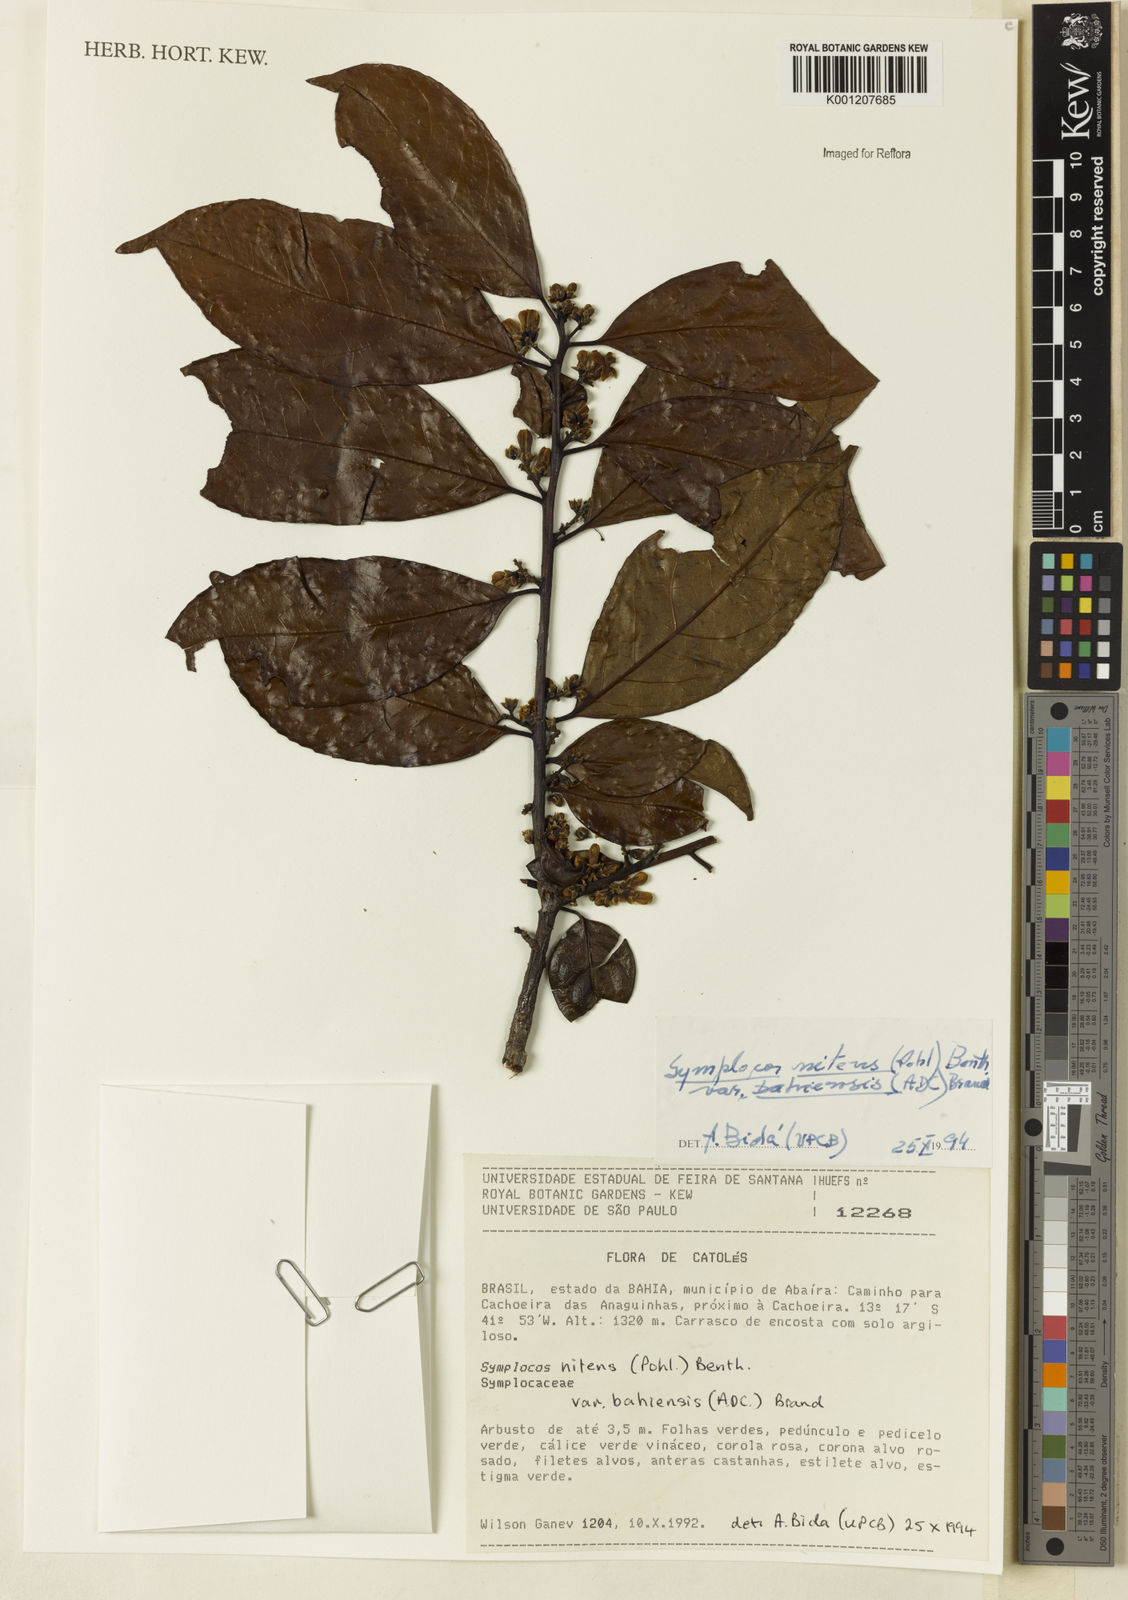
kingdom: Plantae
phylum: Tracheophyta
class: Magnoliopsida
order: Ericales
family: Symplocaceae
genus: Symplocos
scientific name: Symplocos nitens
